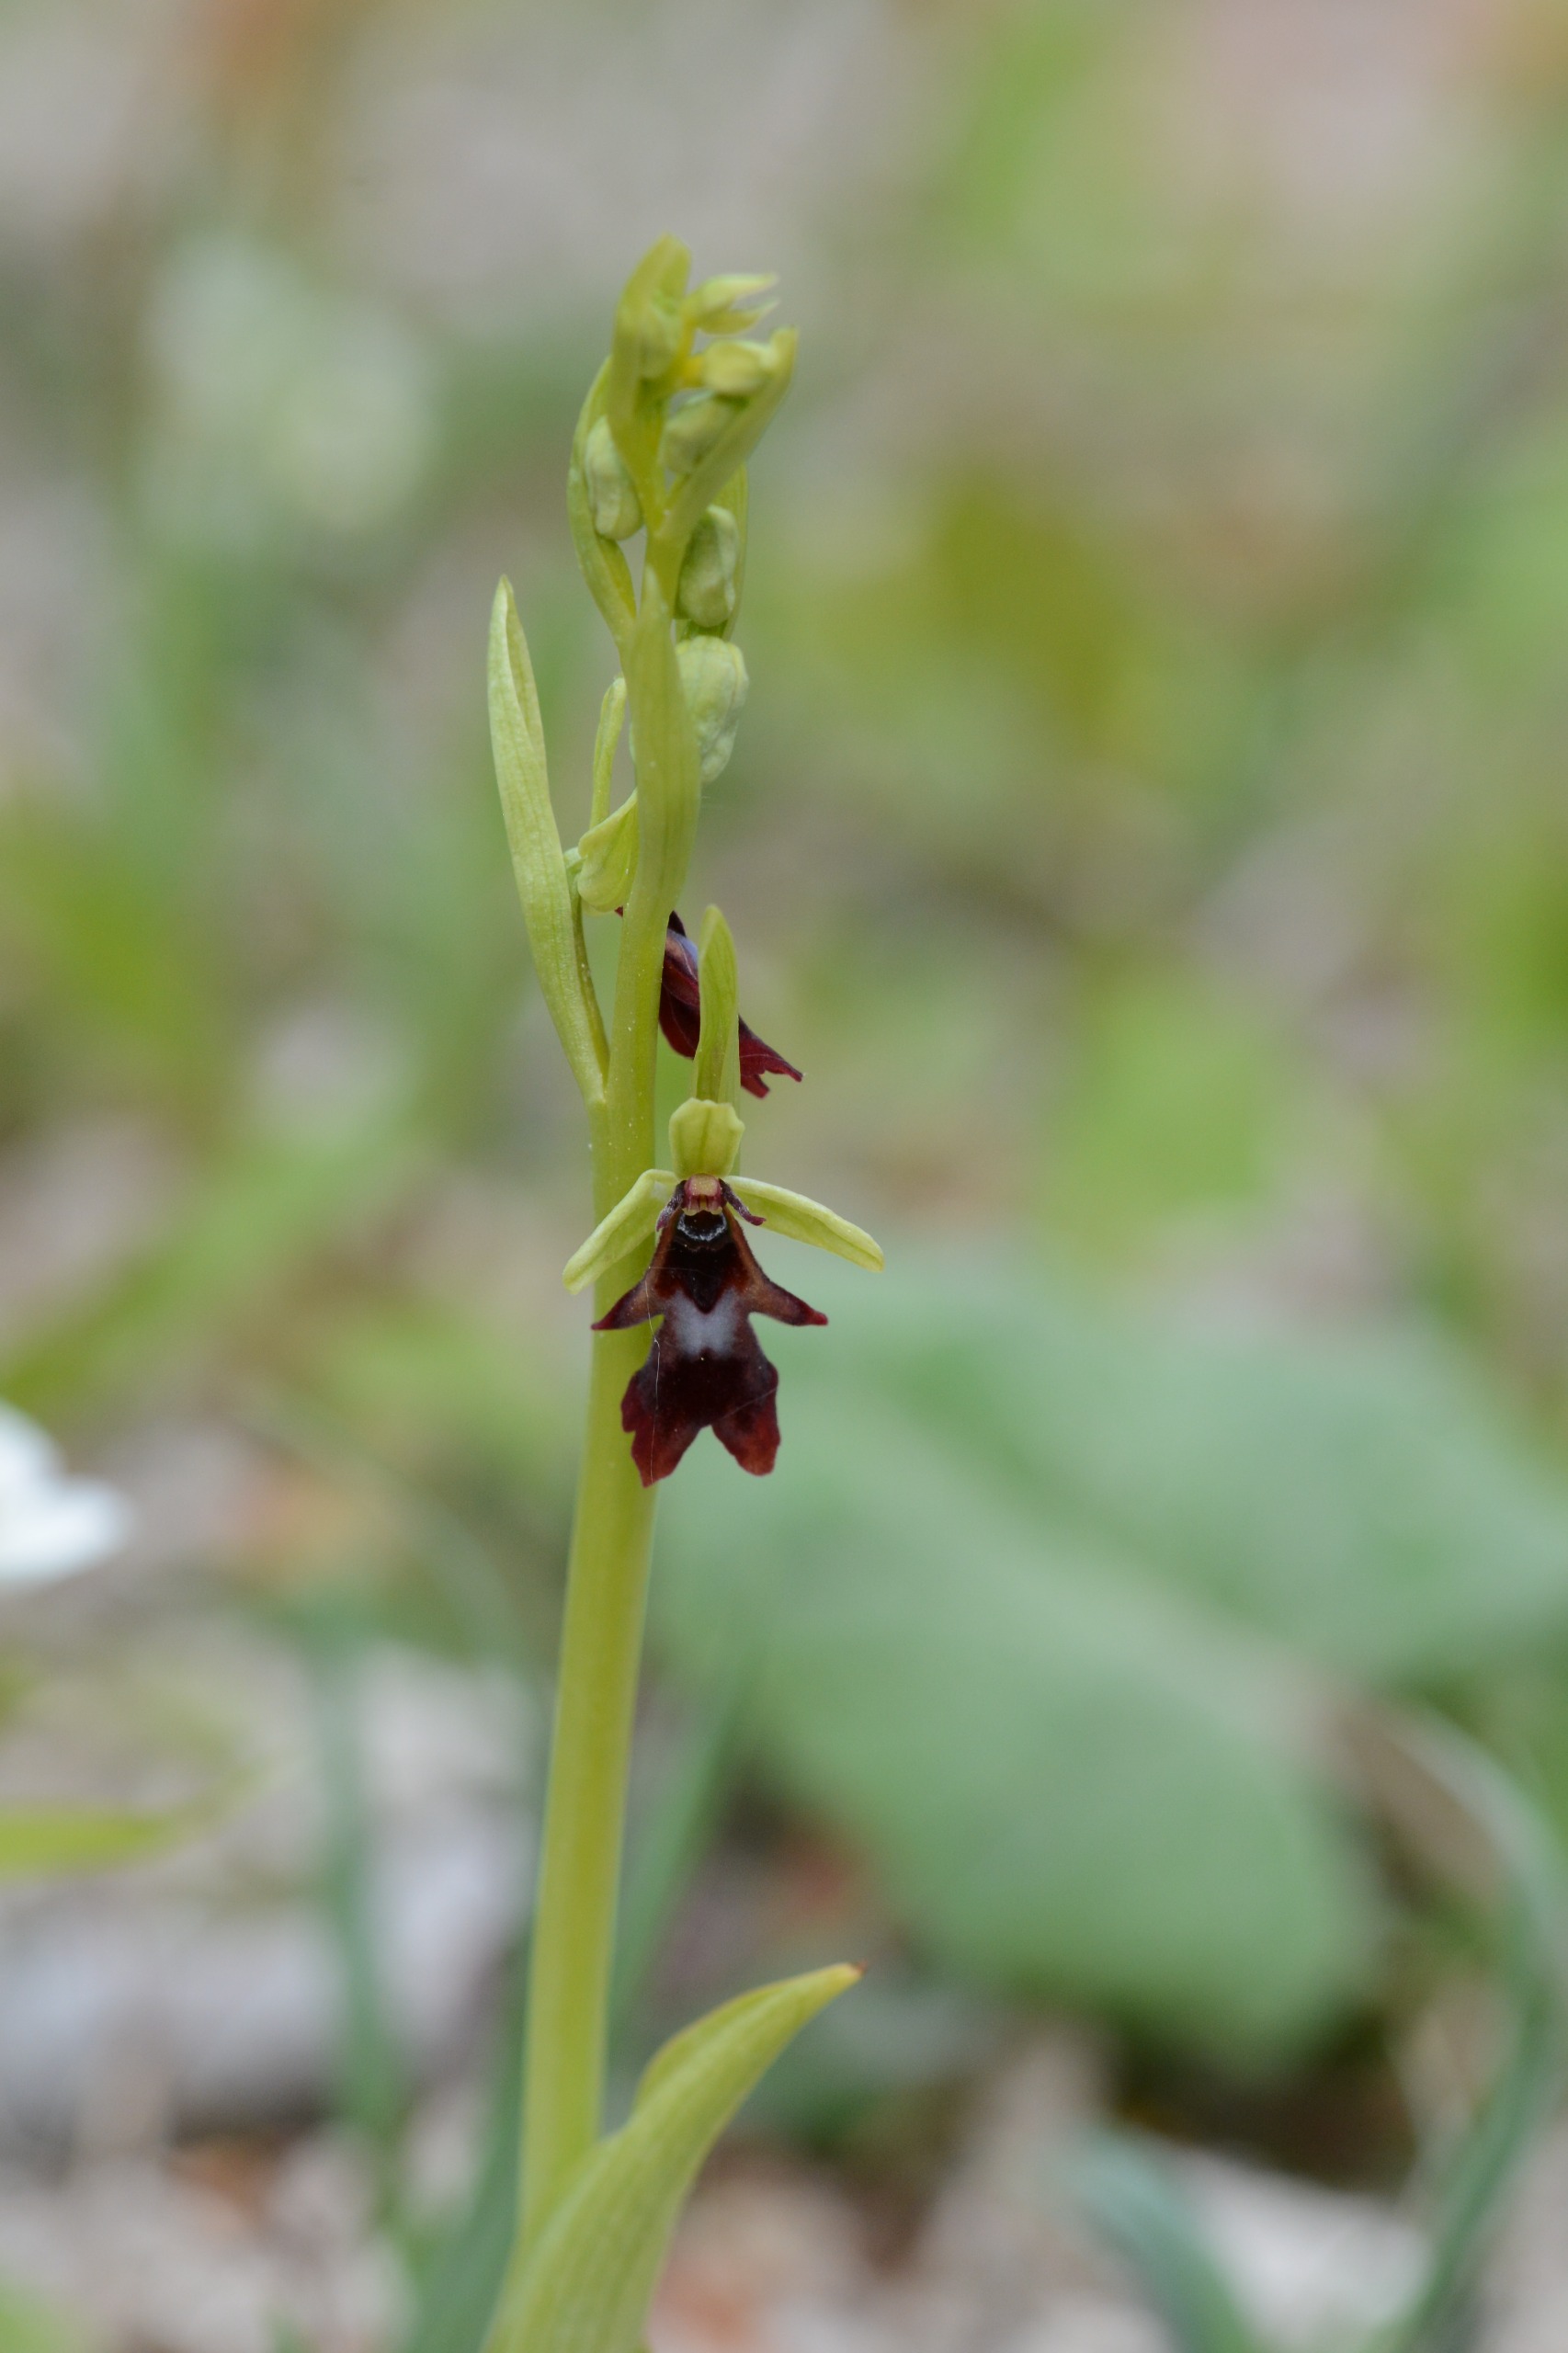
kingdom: Plantae
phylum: Tracheophyta
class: Liliopsida
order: Asparagales
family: Orchidaceae
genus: Ophrys
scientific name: Ophrys insectifera
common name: Flueblomst
